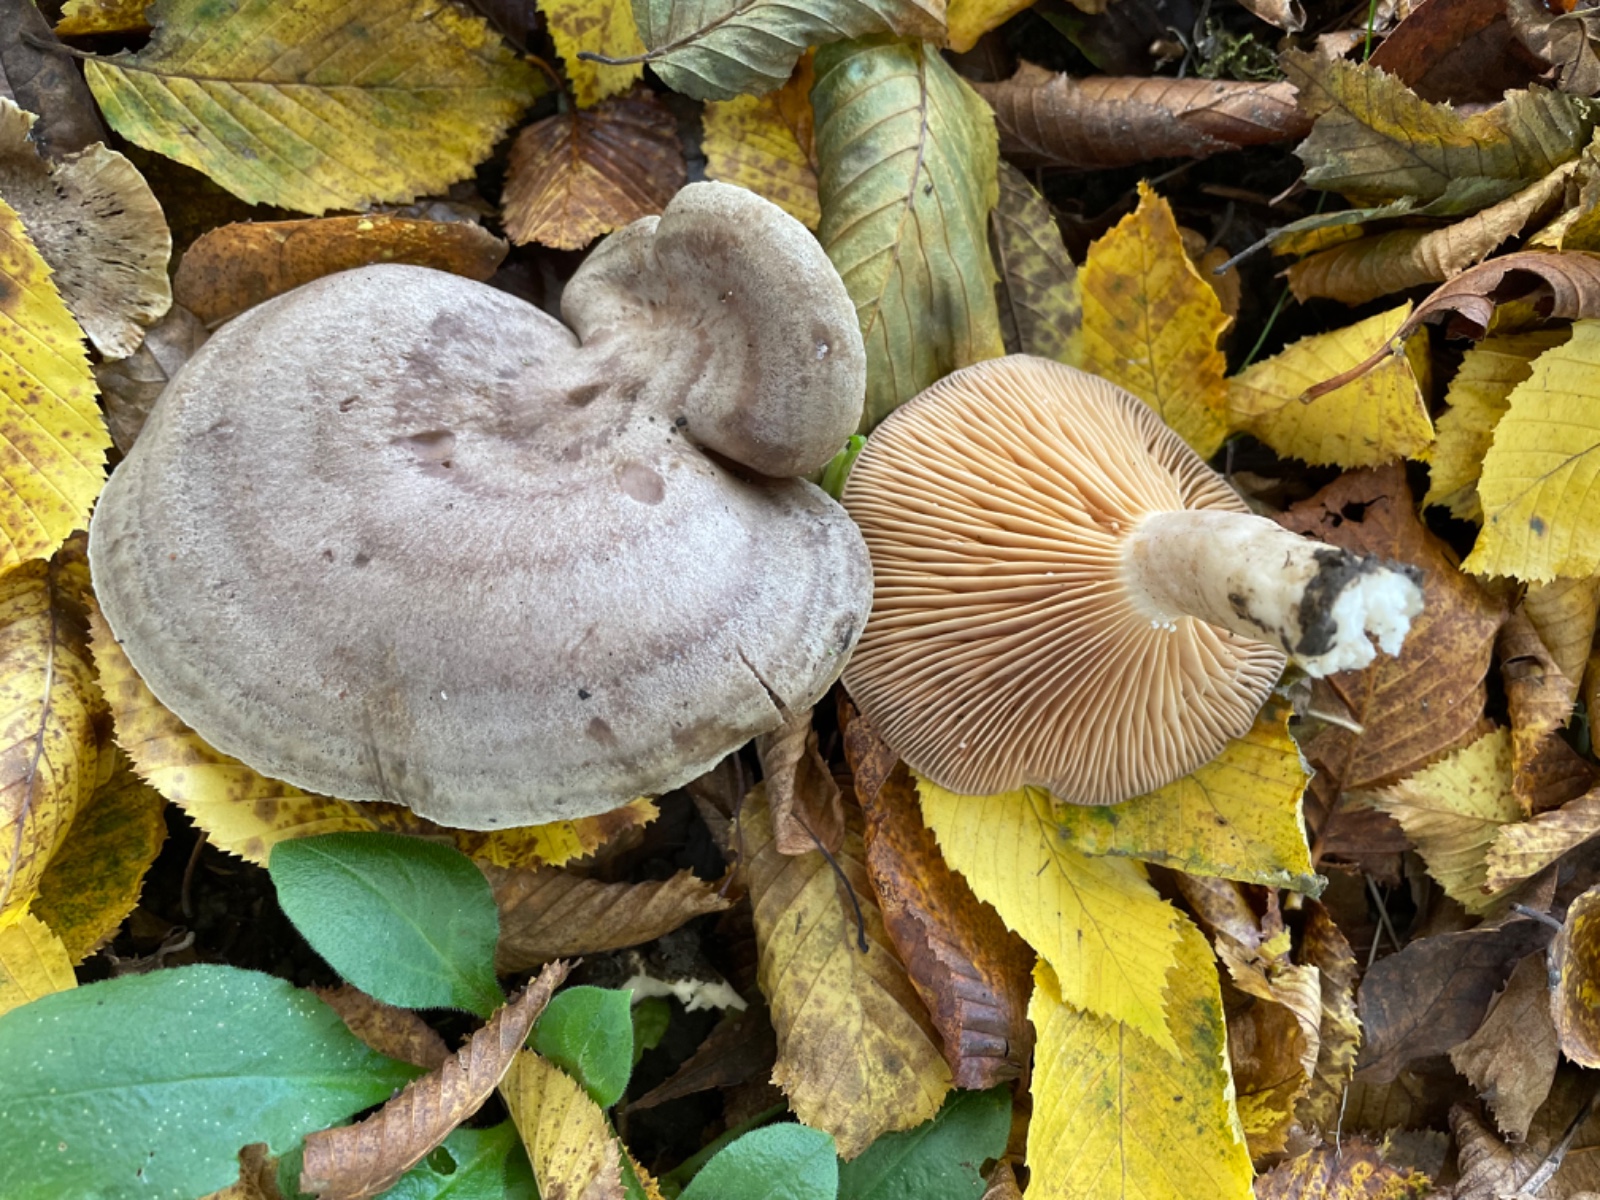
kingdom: Fungi
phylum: Basidiomycota
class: Agaricomycetes
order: Russulales
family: Russulaceae
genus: Lactarius
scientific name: Lactarius circellatus
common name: avnbøg-mælkehat
